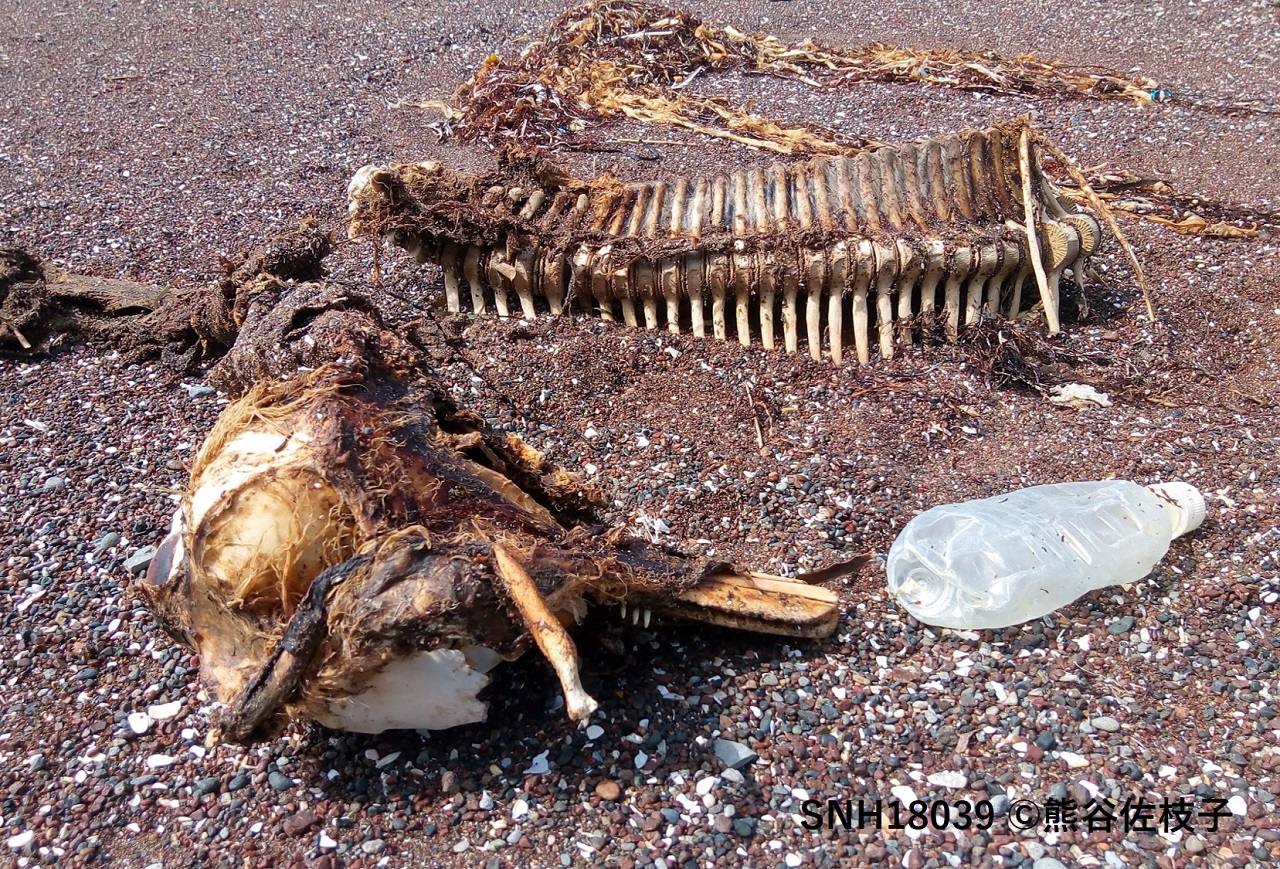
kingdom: Animalia
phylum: Chordata
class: Mammalia
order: Cetacea
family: Delphinidae
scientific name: Delphinidae
